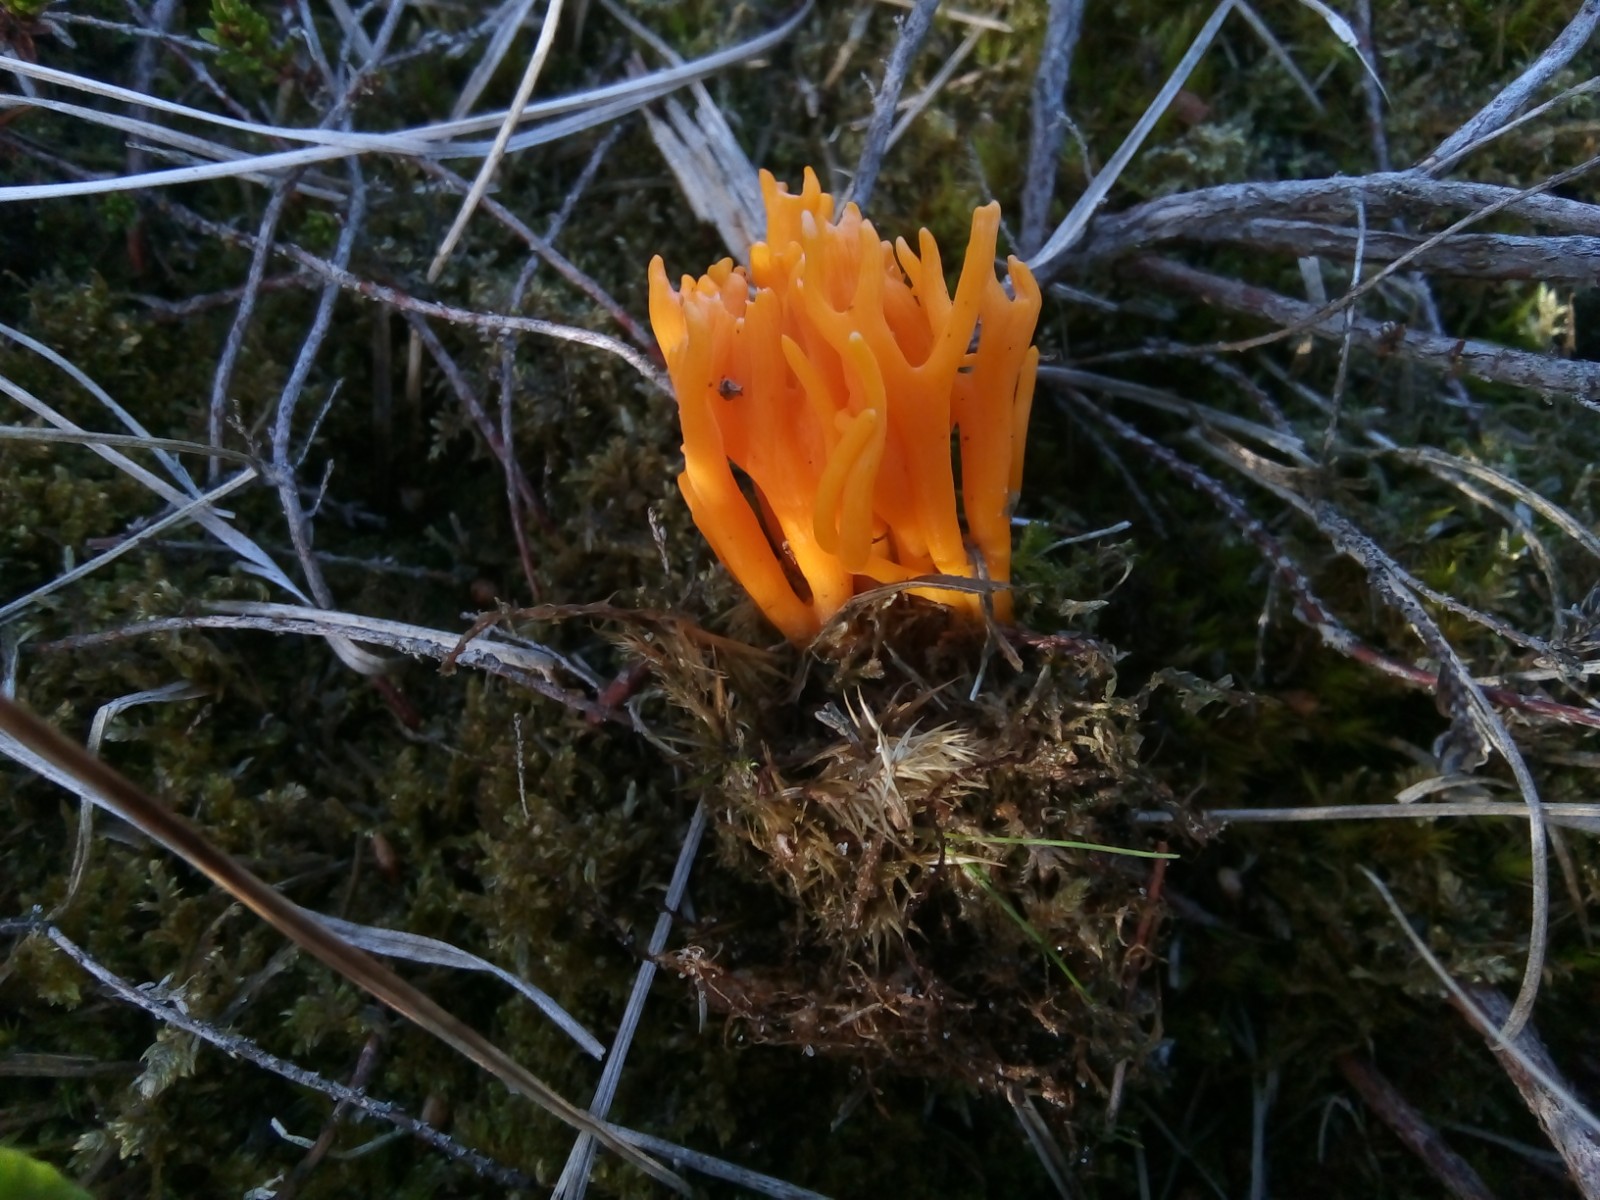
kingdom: Fungi
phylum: Basidiomycota
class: Dacrymycetes
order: Dacrymycetales
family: Dacrymycetaceae
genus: Calocera
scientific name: Calocera viscosa
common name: almindelig guldgaffel
